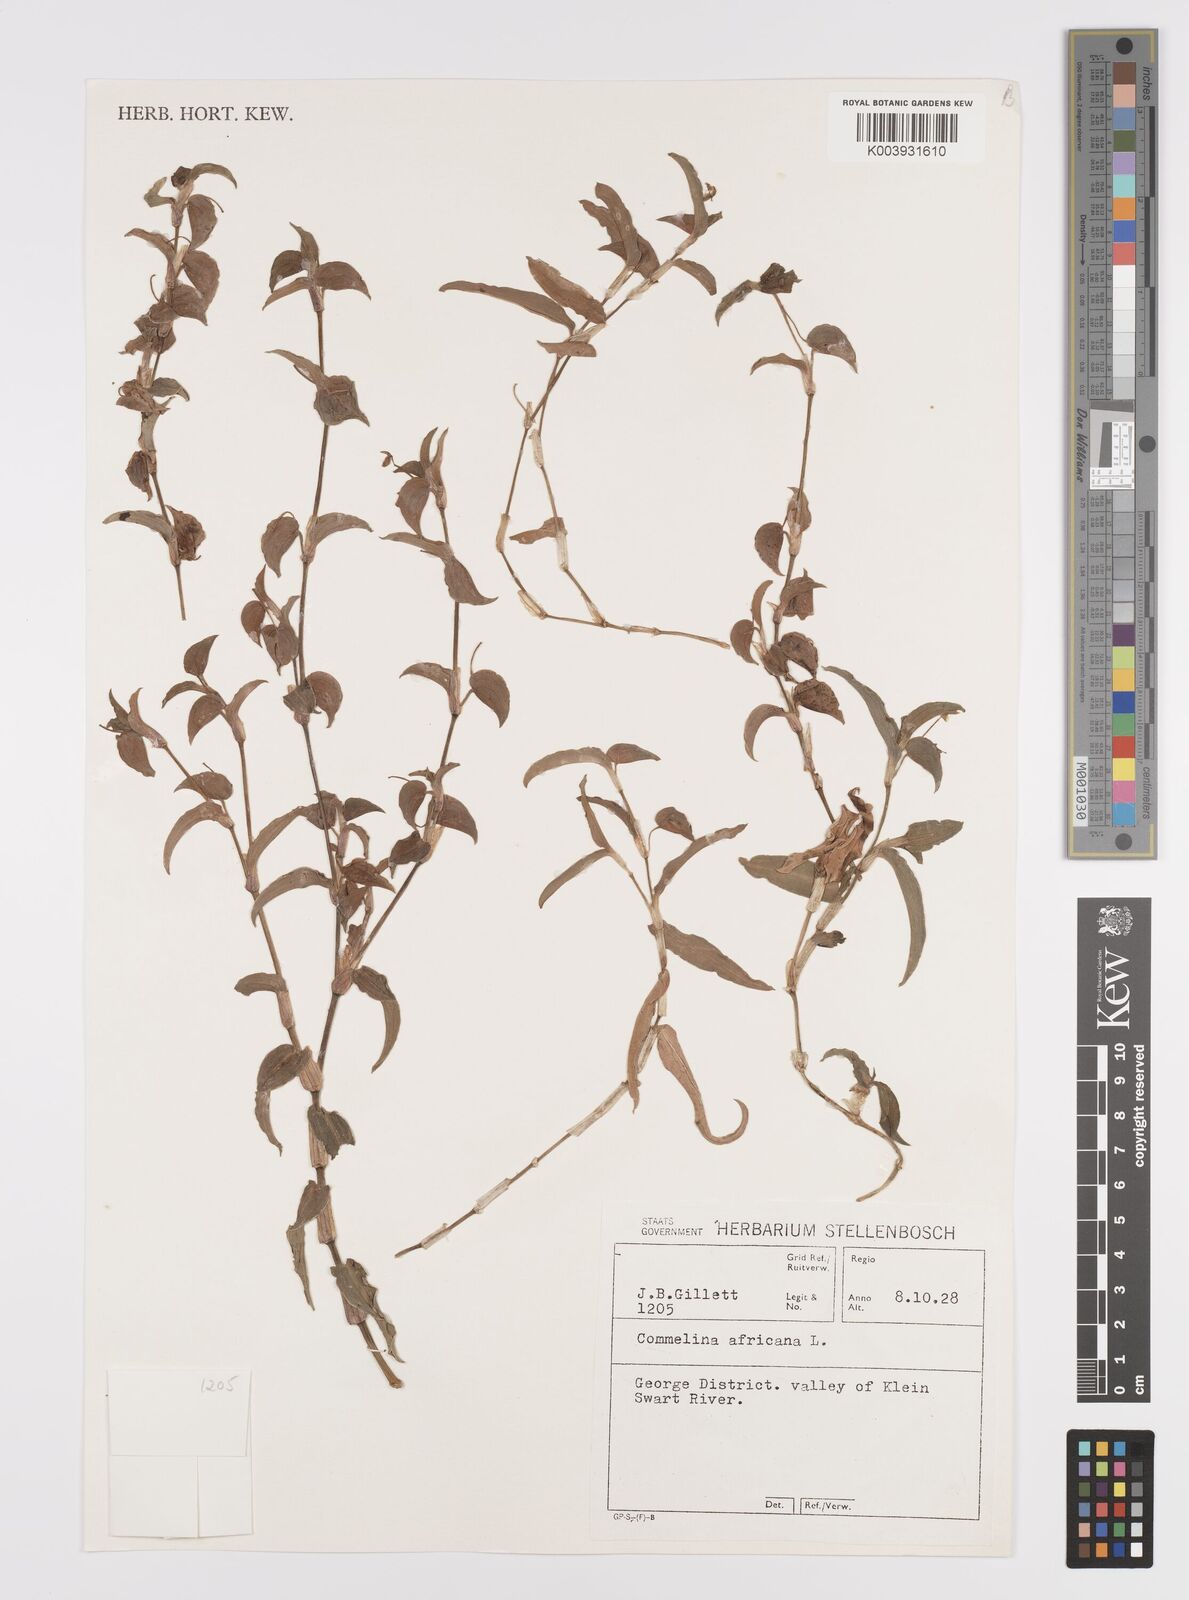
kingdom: Plantae
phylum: Tracheophyta
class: Liliopsida
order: Commelinales
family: Commelinaceae
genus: Commelina
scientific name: Commelina africana
